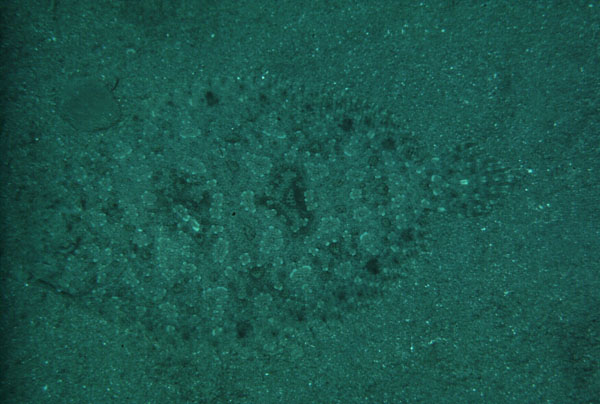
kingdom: Animalia
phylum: Chordata
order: Pleuronectiformes
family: Bothidae
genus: Bothus
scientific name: Bothus pantherinus
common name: Leopard flounder
